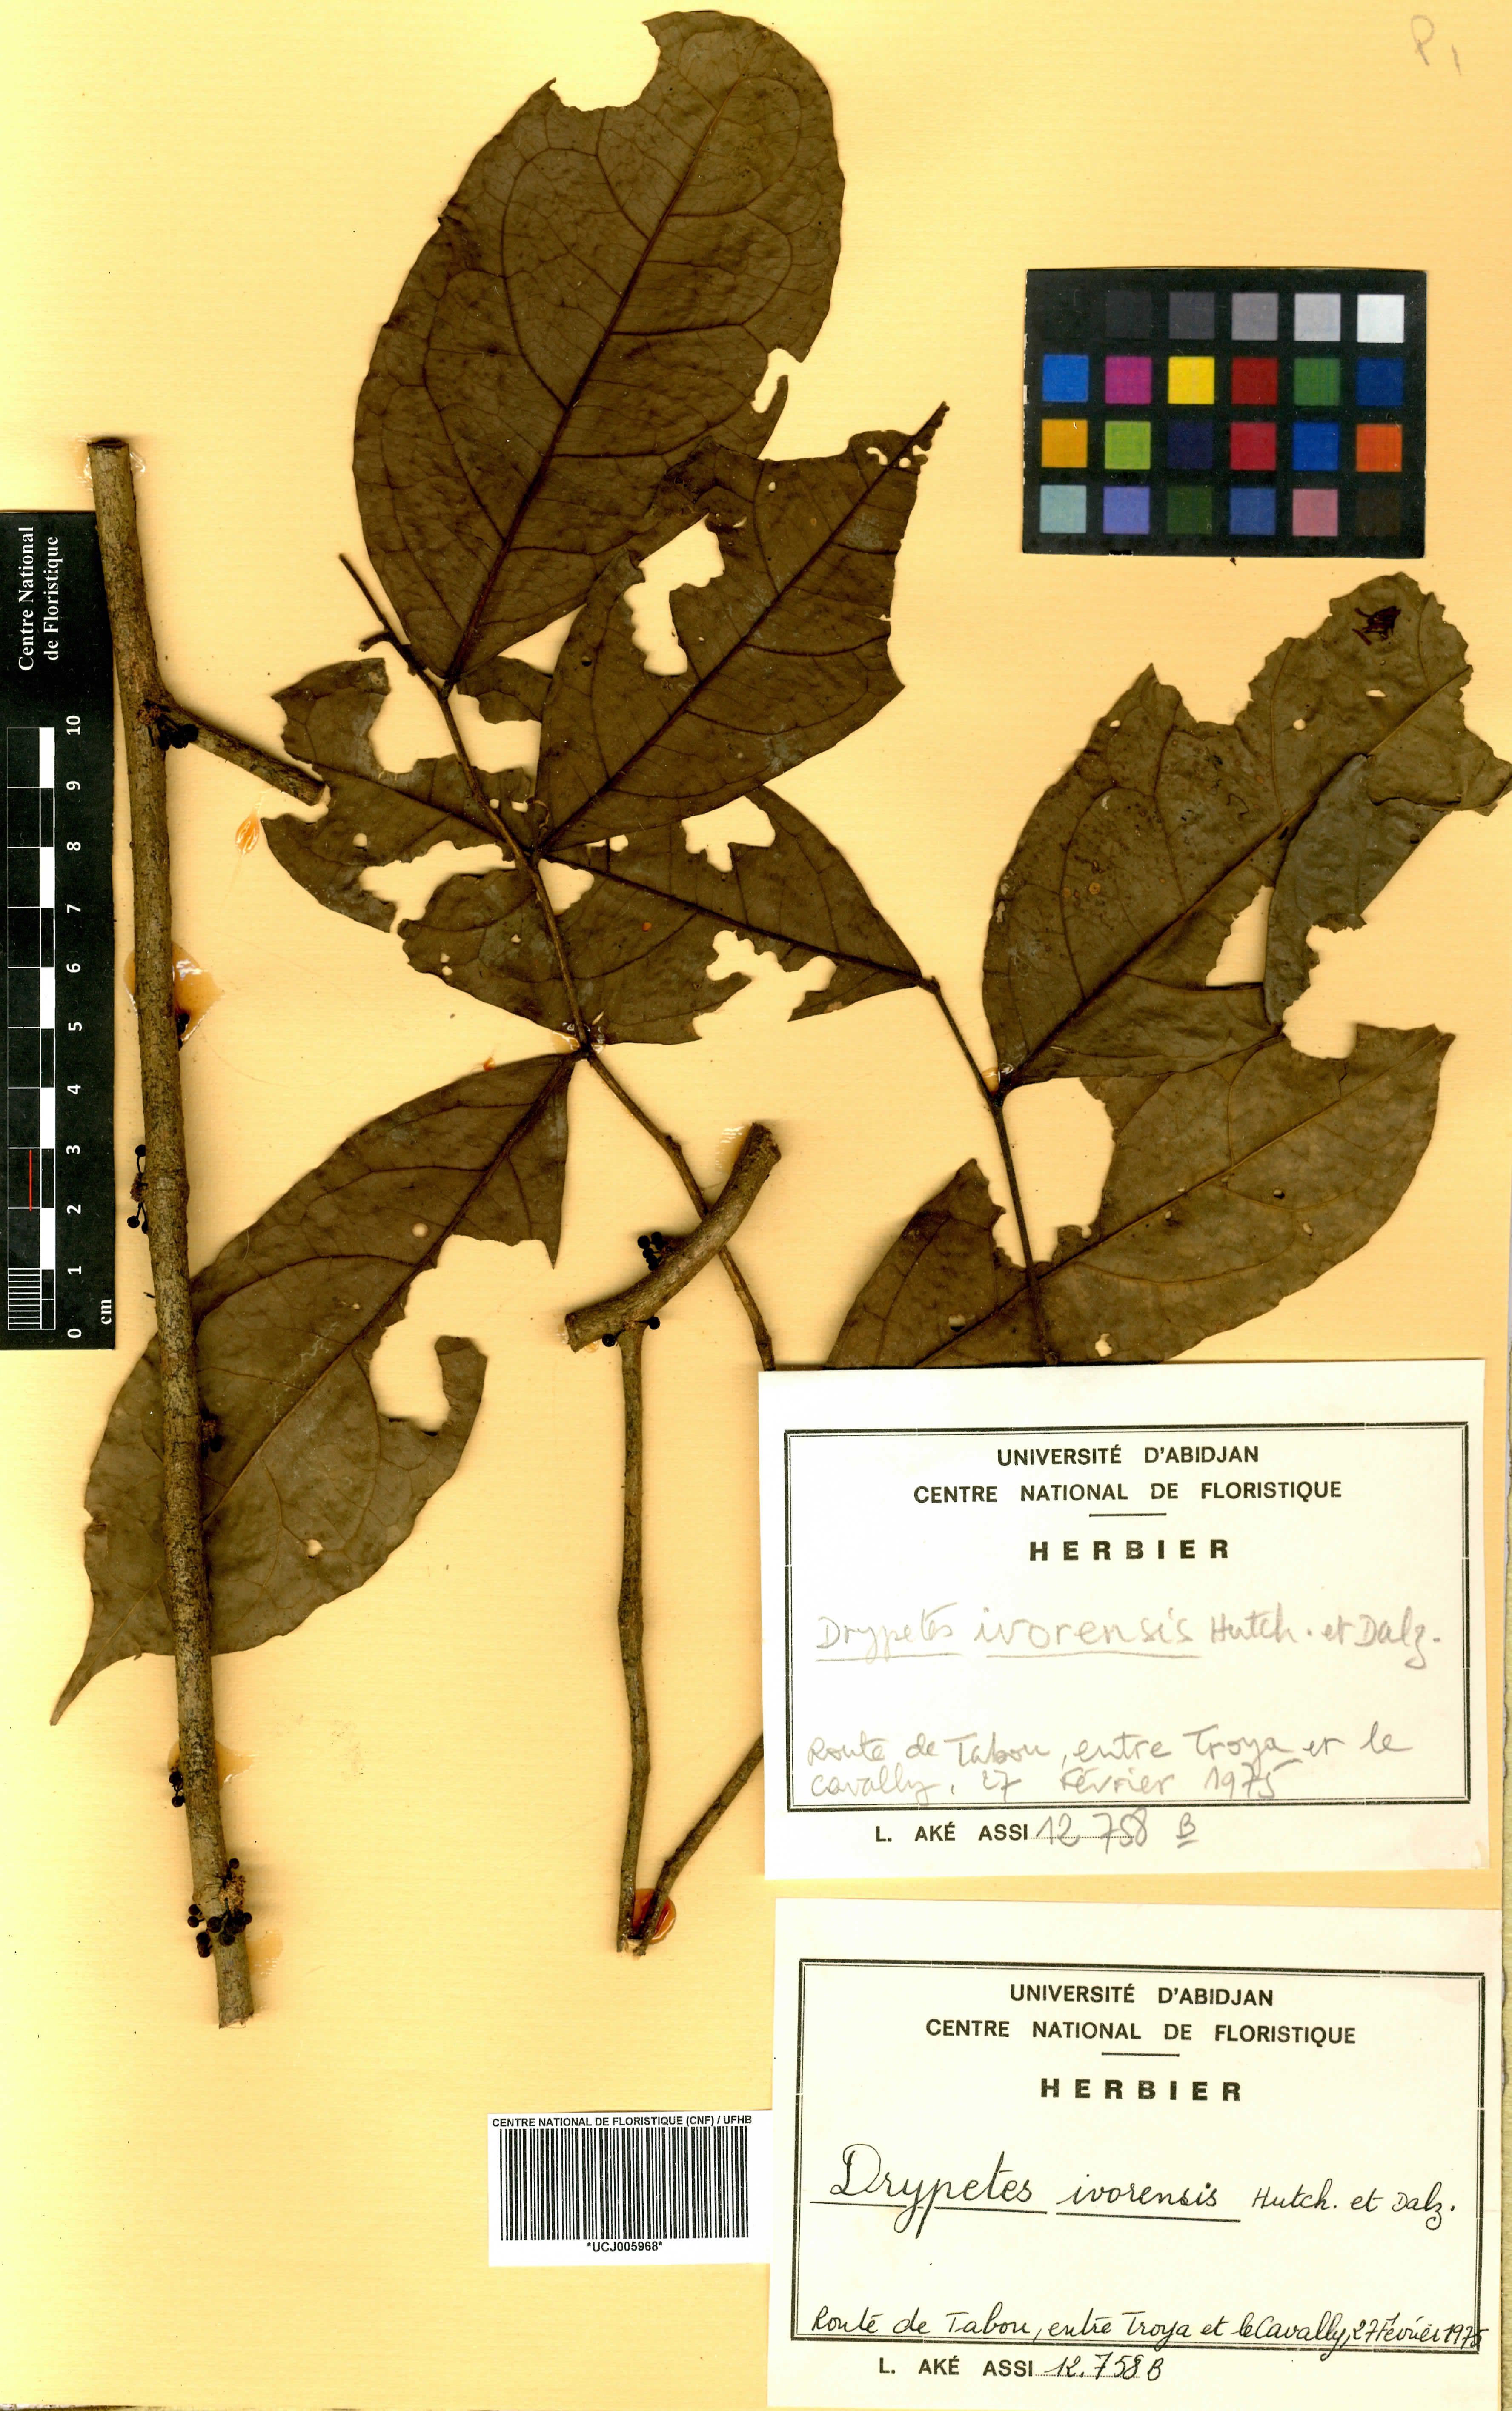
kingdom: Plantae
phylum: Tracheophyta
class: Magnoliopsida
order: Malpighiales
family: Putranjivaceae
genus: Drypetes
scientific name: Drypetes ivorensis
